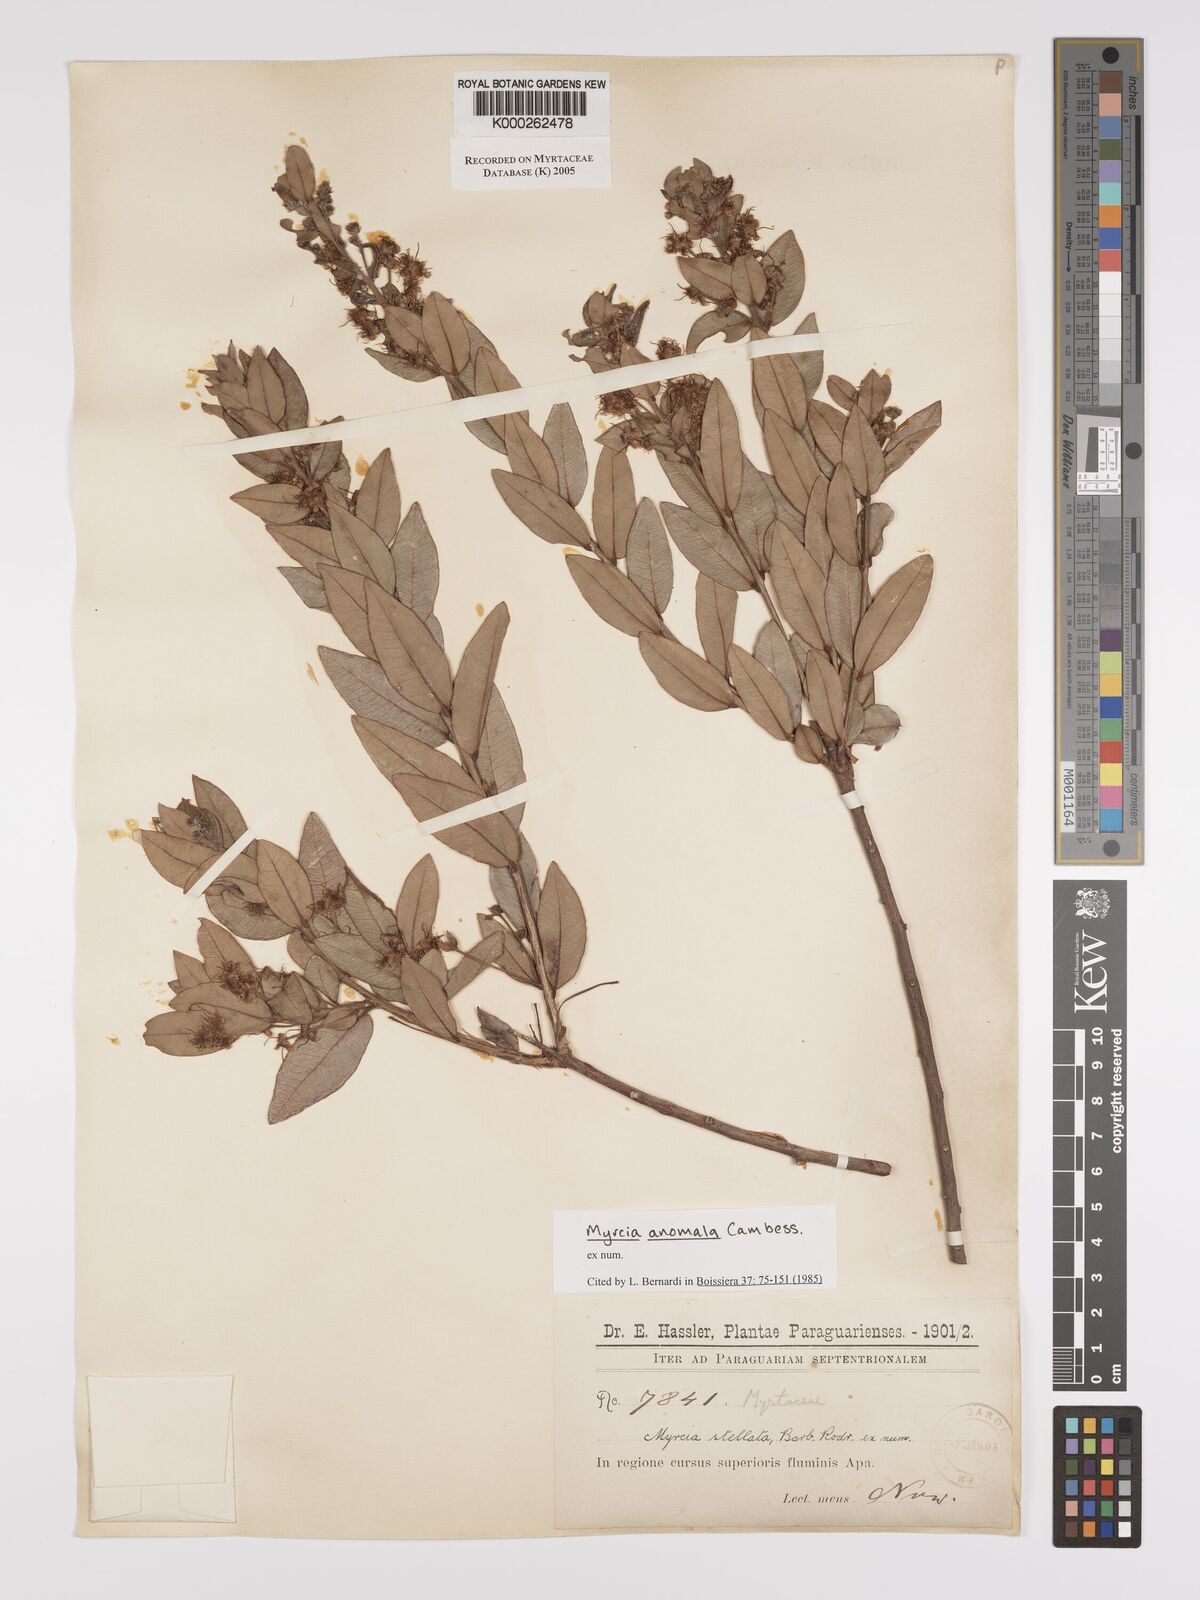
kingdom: Plantae
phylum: Tracheophyta
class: Magnoliopsida
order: Myrtales
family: Myrtaceae
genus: Myrcia
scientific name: Myrcia anomala
